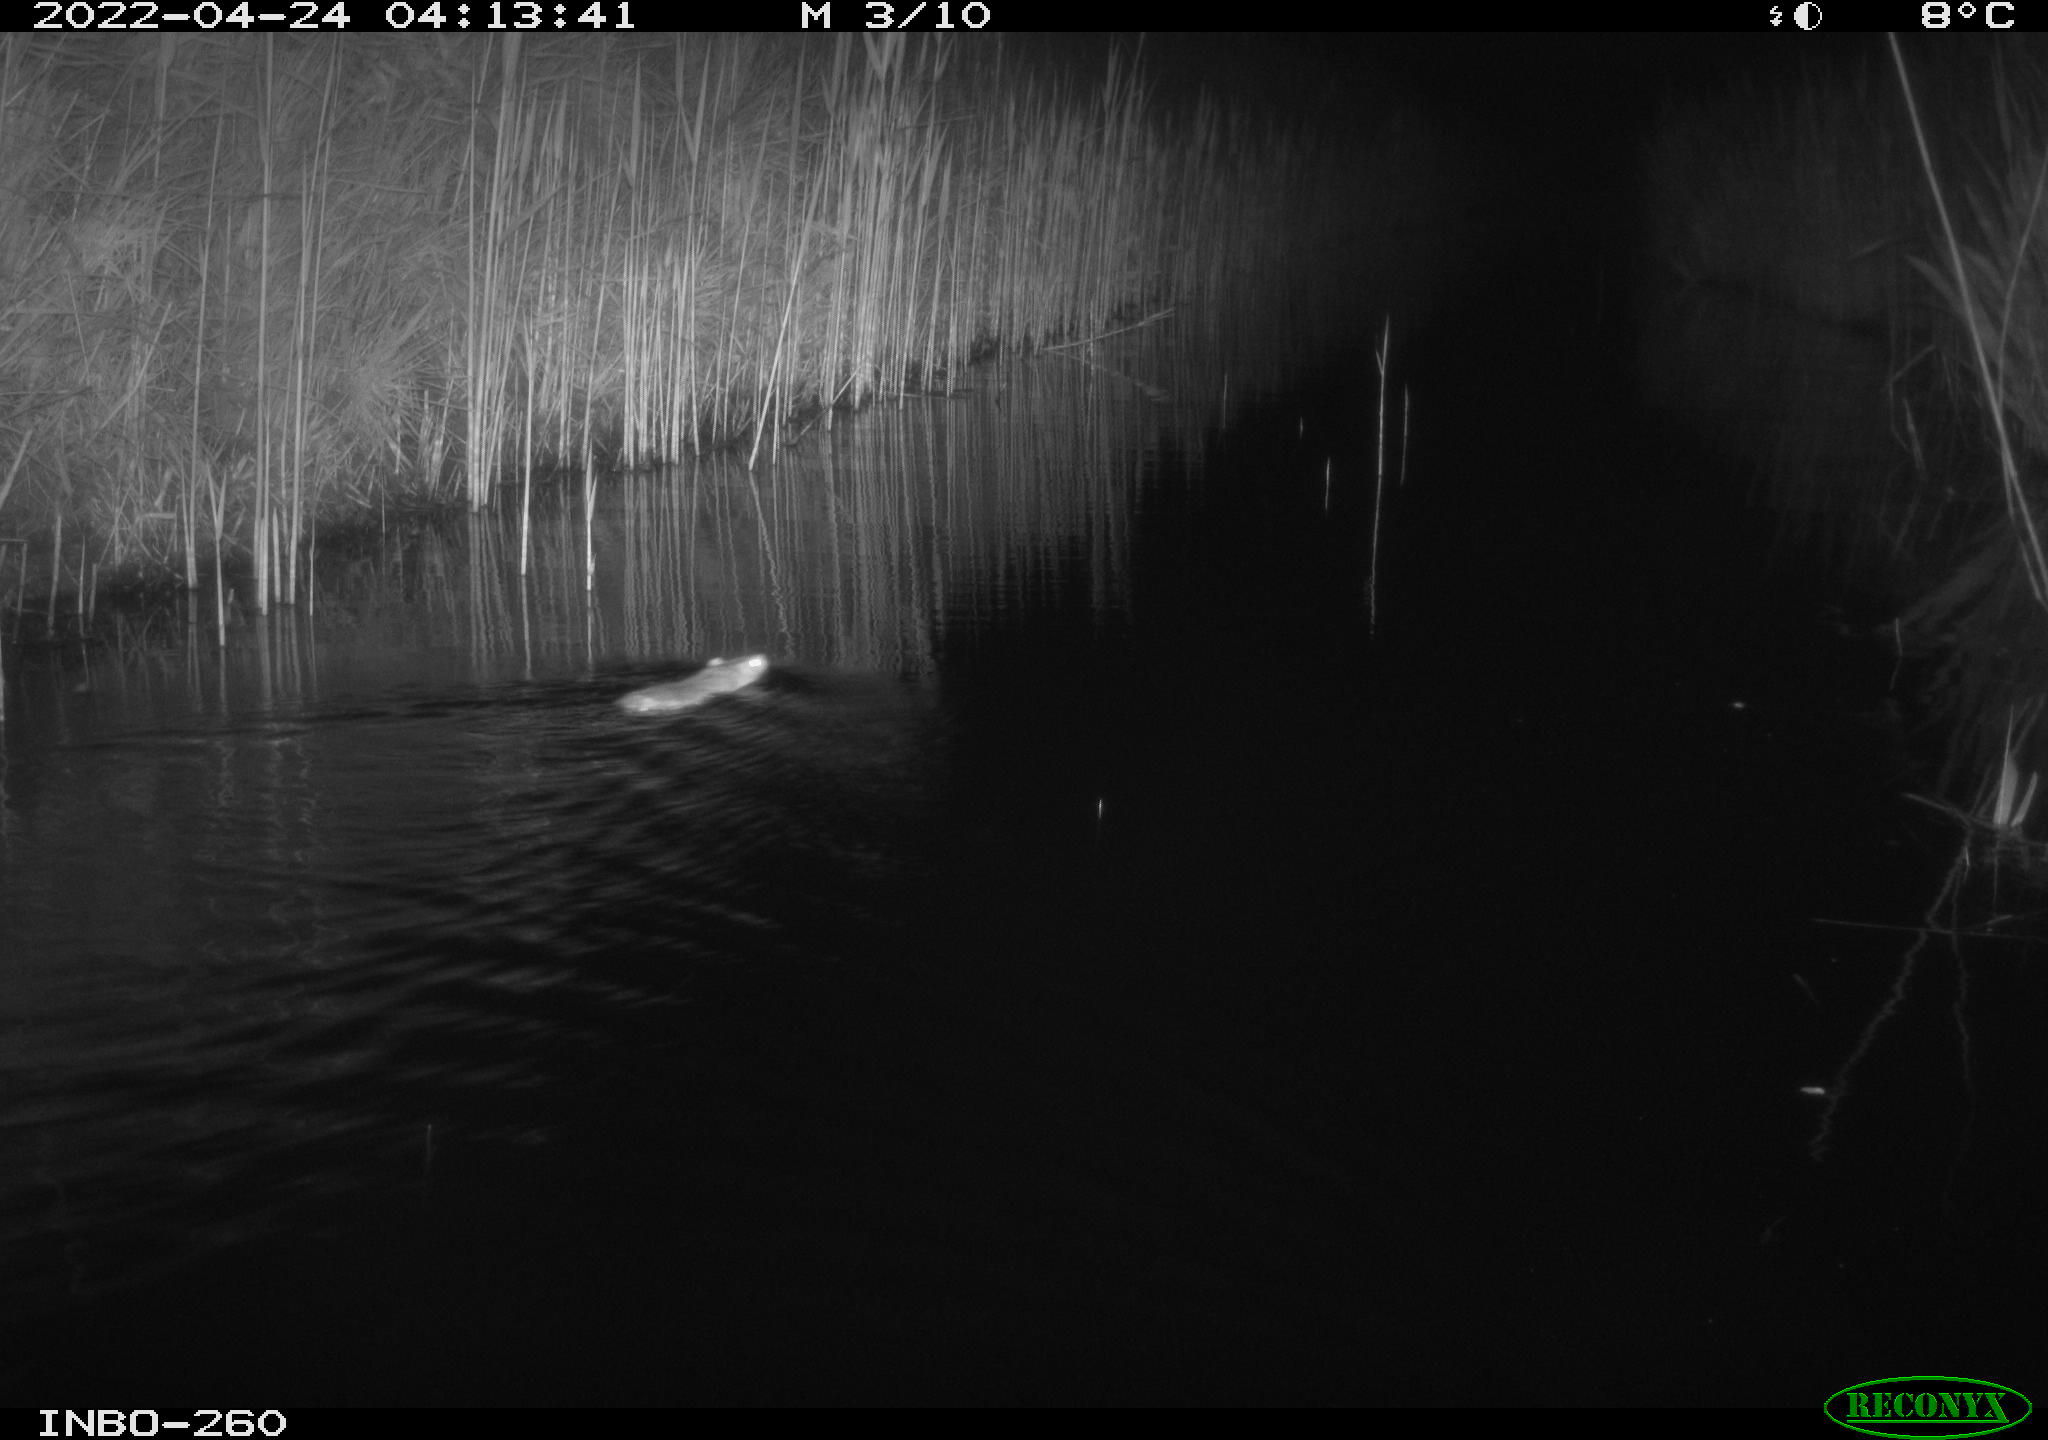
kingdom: Animalia
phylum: Chordata
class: Mammalia
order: Rodentia
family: Cricetidae
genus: Ondatra
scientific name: Ondatra zibethicus
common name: Muskrat
